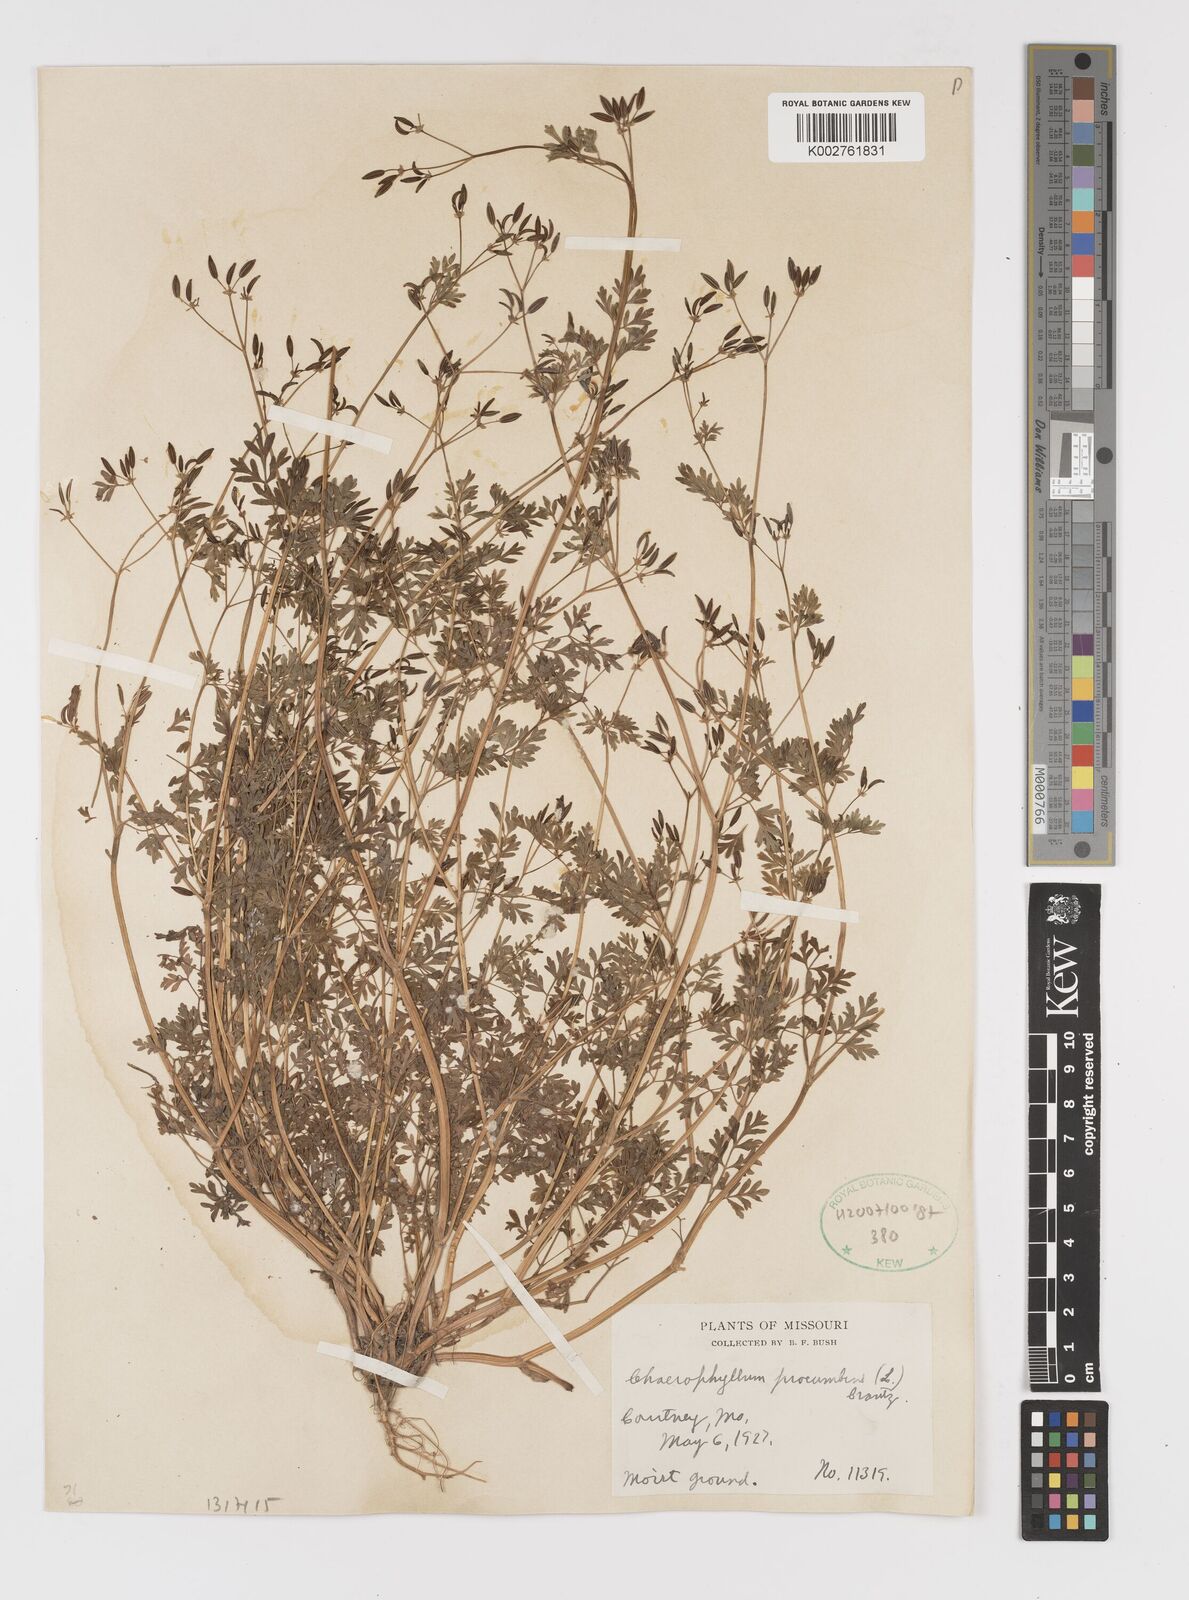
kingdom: Plantae
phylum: Tracheophyta
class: Magnoliopsida
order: Apiales
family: Apiaceae
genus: Chaerophyllum
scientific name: Chaerophyllum procumbens
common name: Spreading chervil
